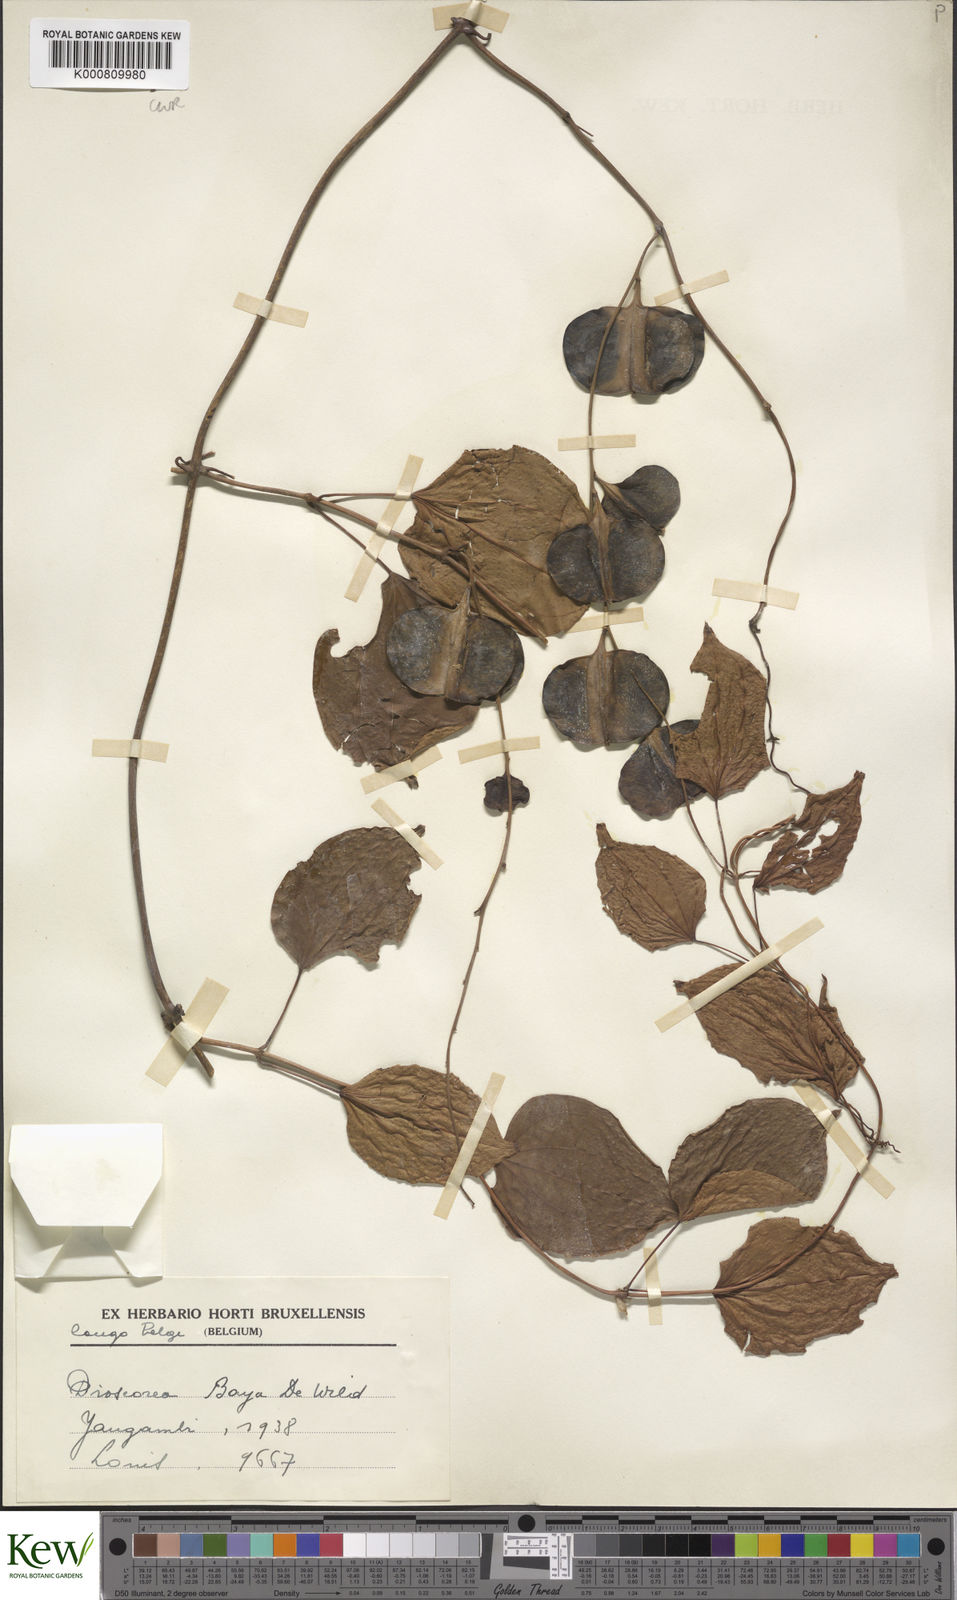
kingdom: Plantae
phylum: Tracheophyta
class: Liliopsida
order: Dioscoreales
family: Dioscoreaceae
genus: Dioscorea
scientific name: Dioscorea baya
